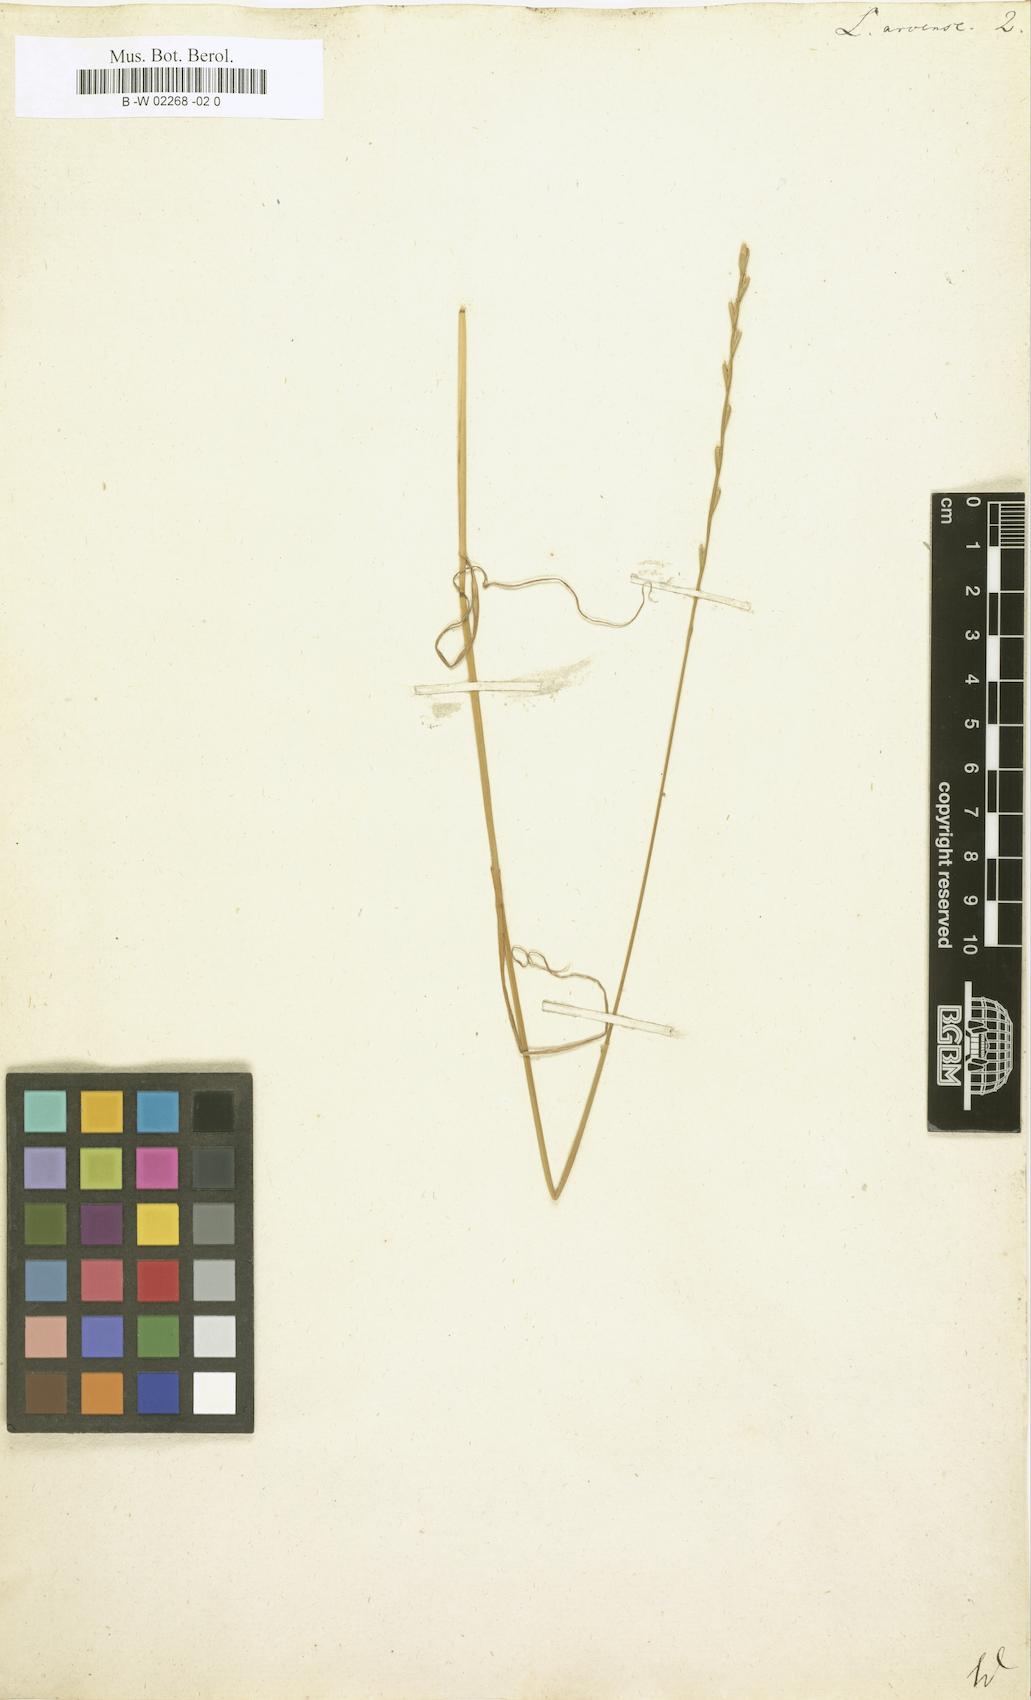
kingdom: Plantae
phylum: Tracheophyta
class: Liliopsida
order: Poales
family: Poaceae
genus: Lolium
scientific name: Lolium
